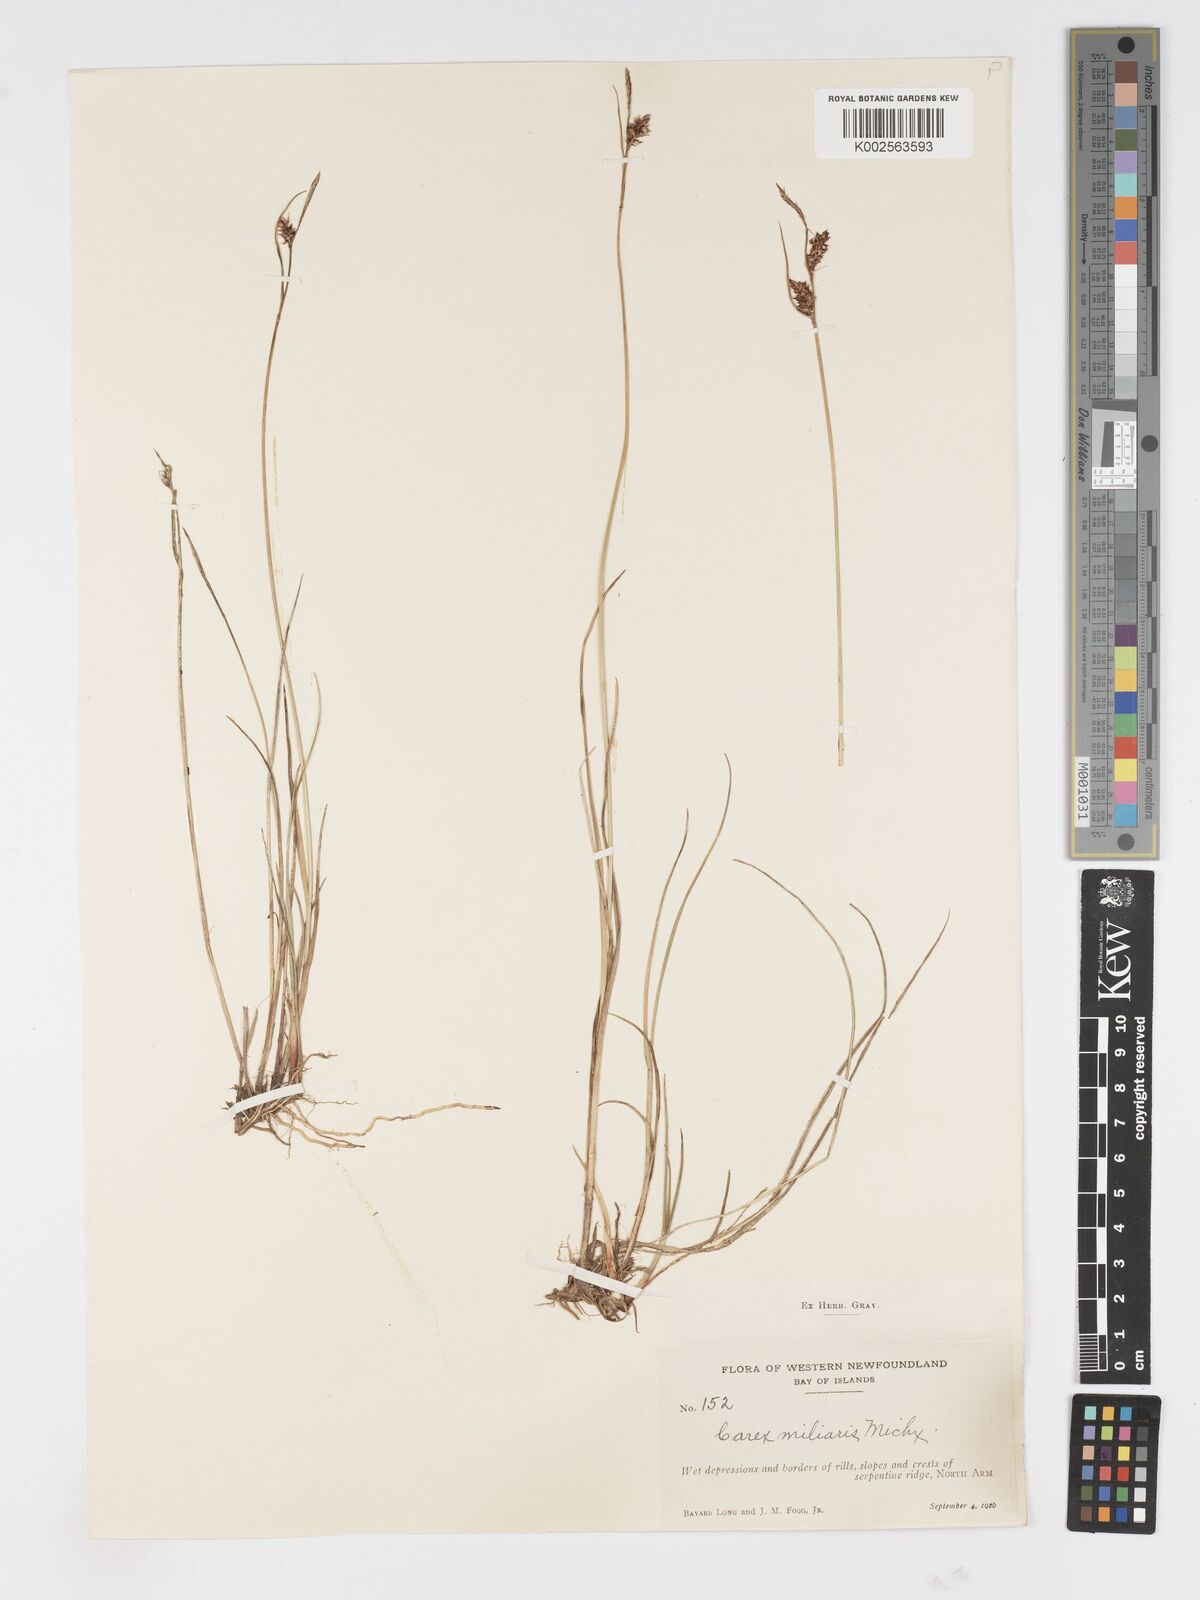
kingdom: Plantae
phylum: Tracheophyta
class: Liliopsida
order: Poales
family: Cyperaceae
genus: Carex
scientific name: Carex miliaris
